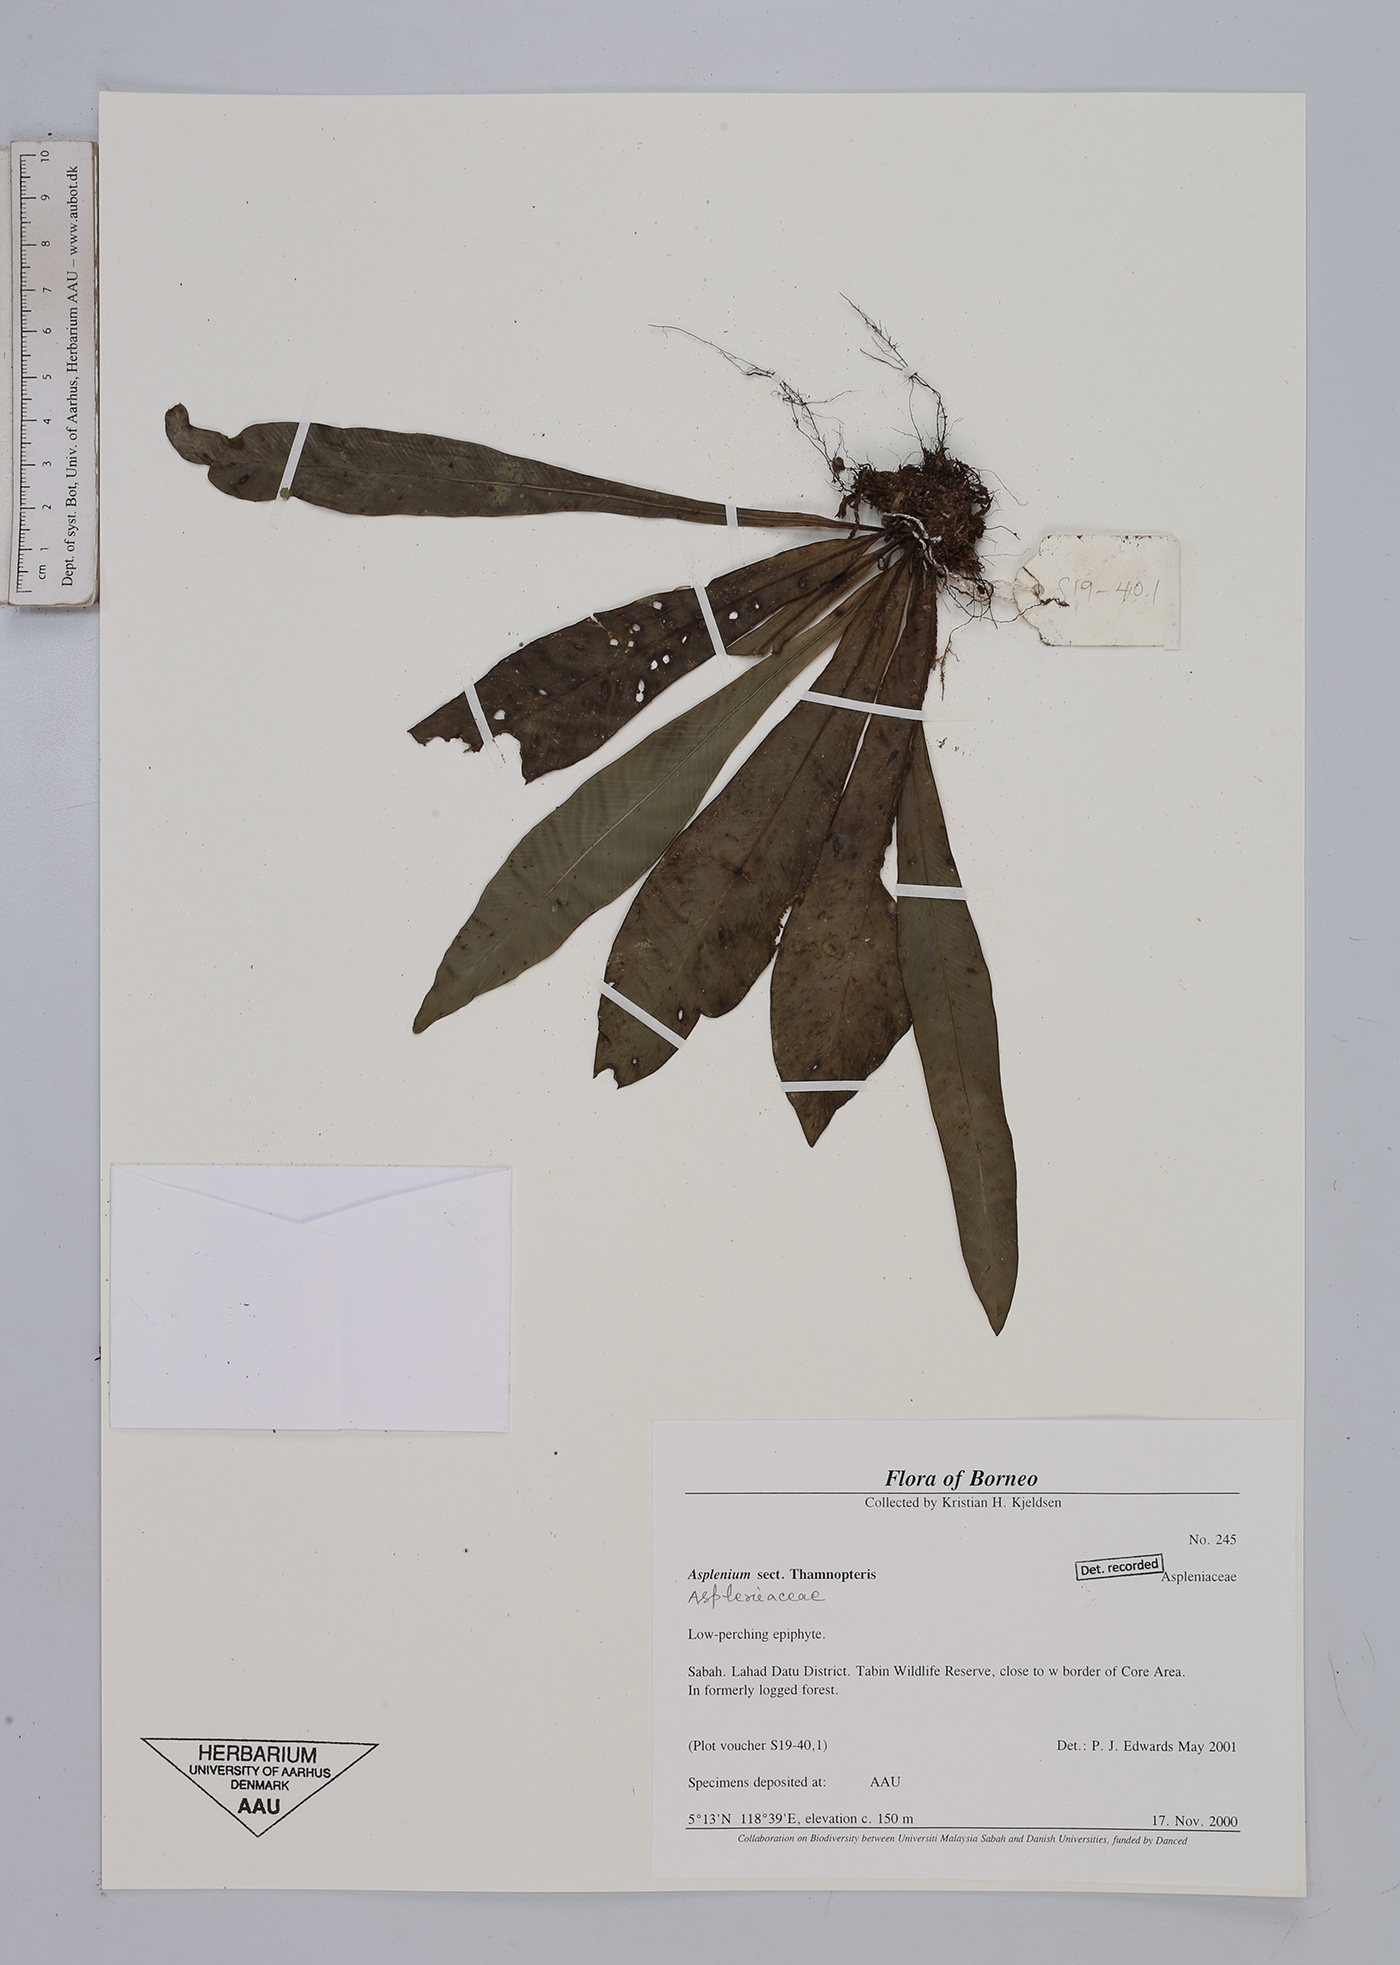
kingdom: Plantae
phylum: Tracheophyta
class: Polypodiopsida
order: Polypodiales
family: Aspleniaceae
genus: Asplenium
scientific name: Asplenium
